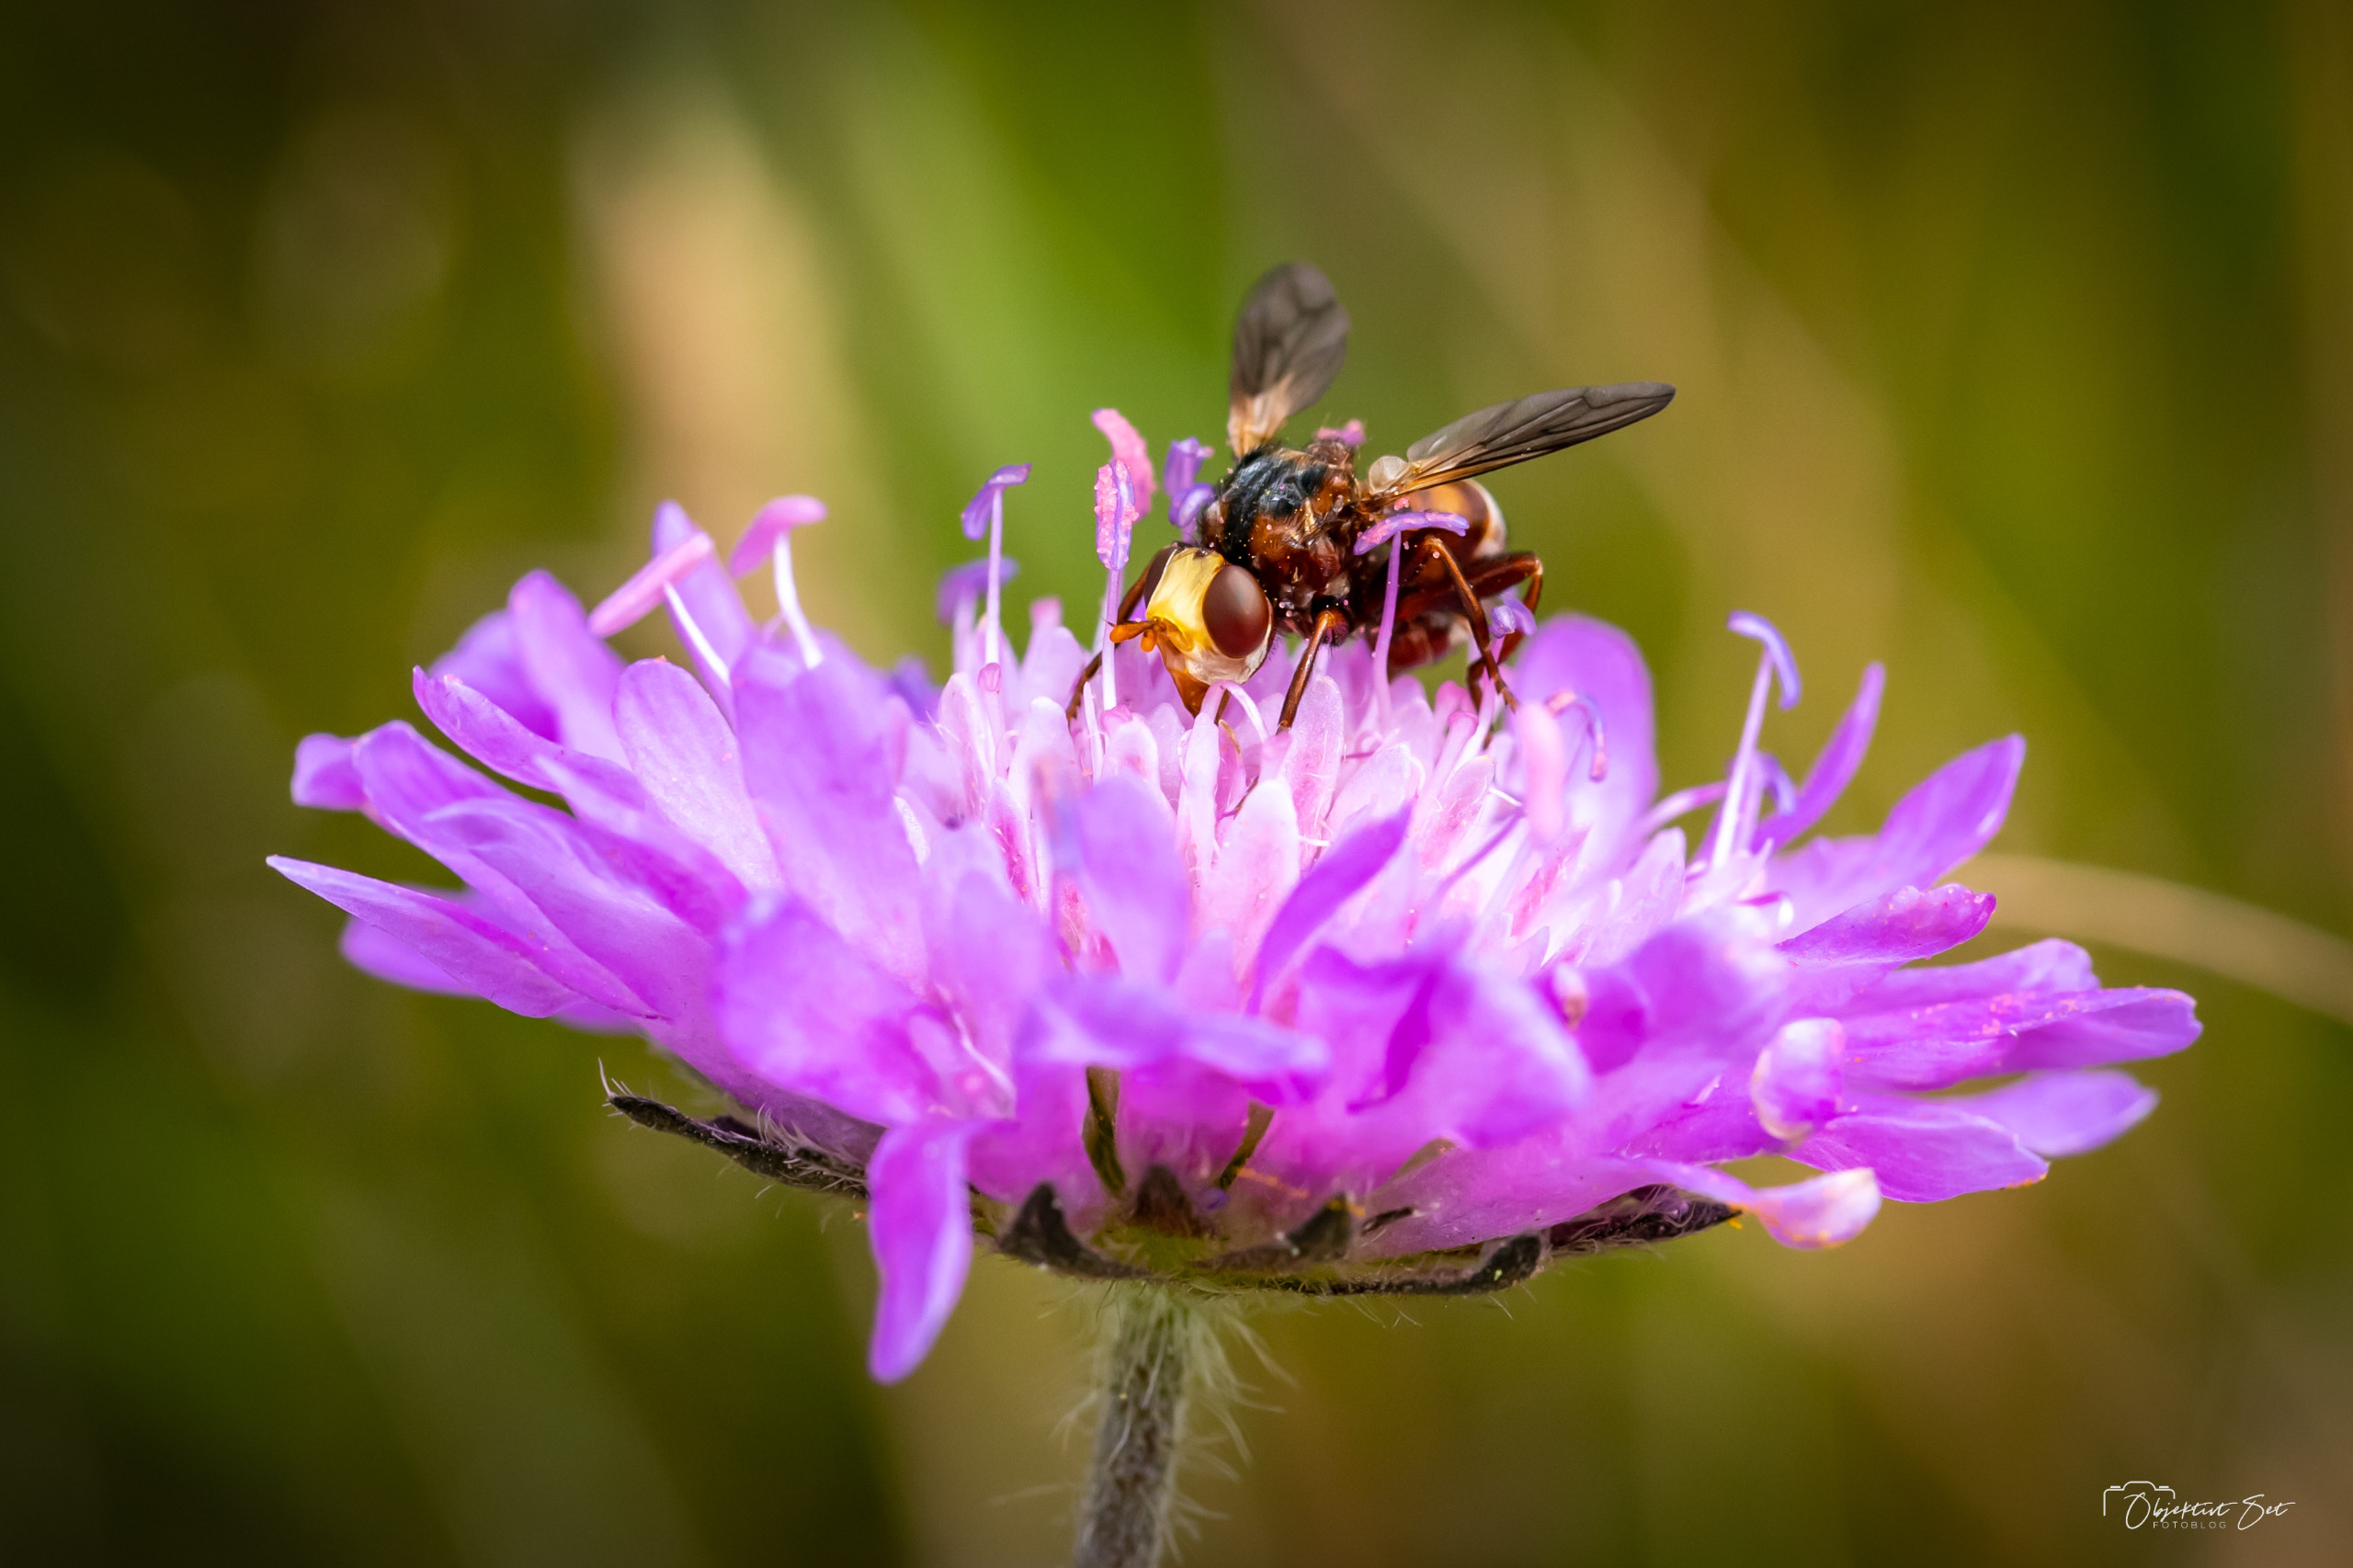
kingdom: Animalia
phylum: Arthropoda
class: Insecta
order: Diptera
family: Conopidae
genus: Sicus
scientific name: Sicus ferrugineus
